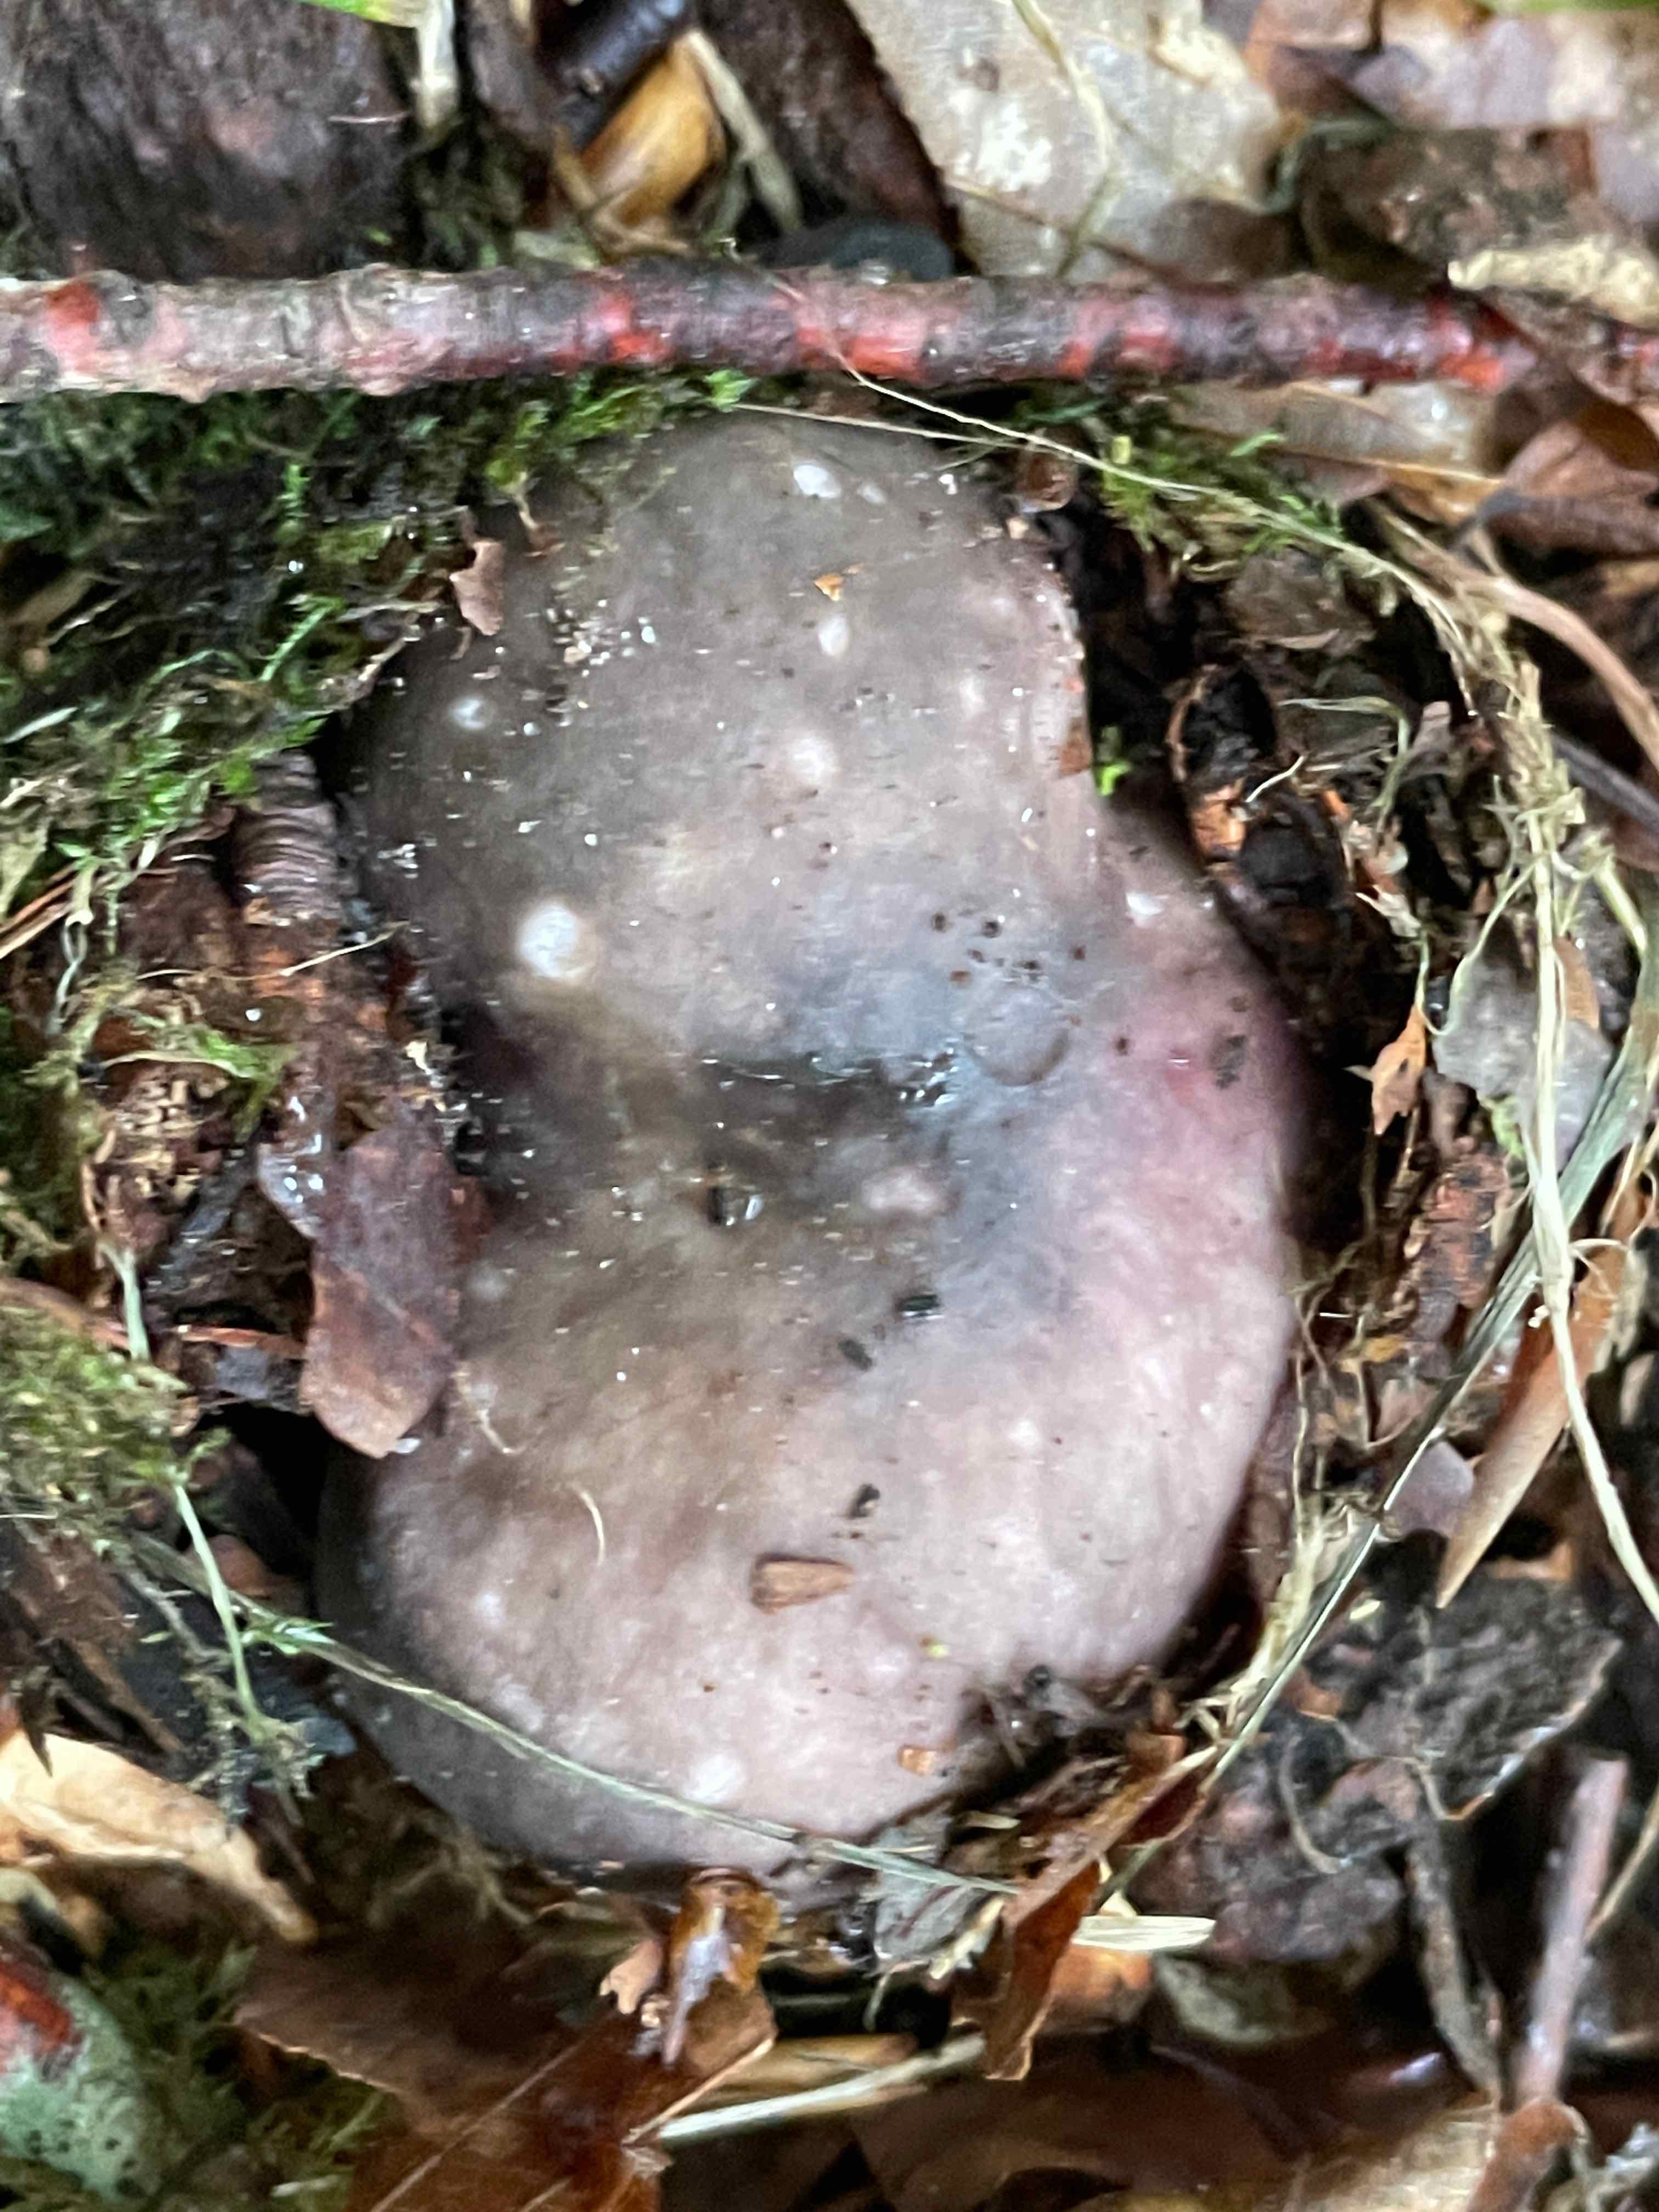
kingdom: Fungi
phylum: Basidiomycota
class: Agaricomycetes
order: Russulales
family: Russulaceae
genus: Russula
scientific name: Russula cyanoxantha
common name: broget skørhat
